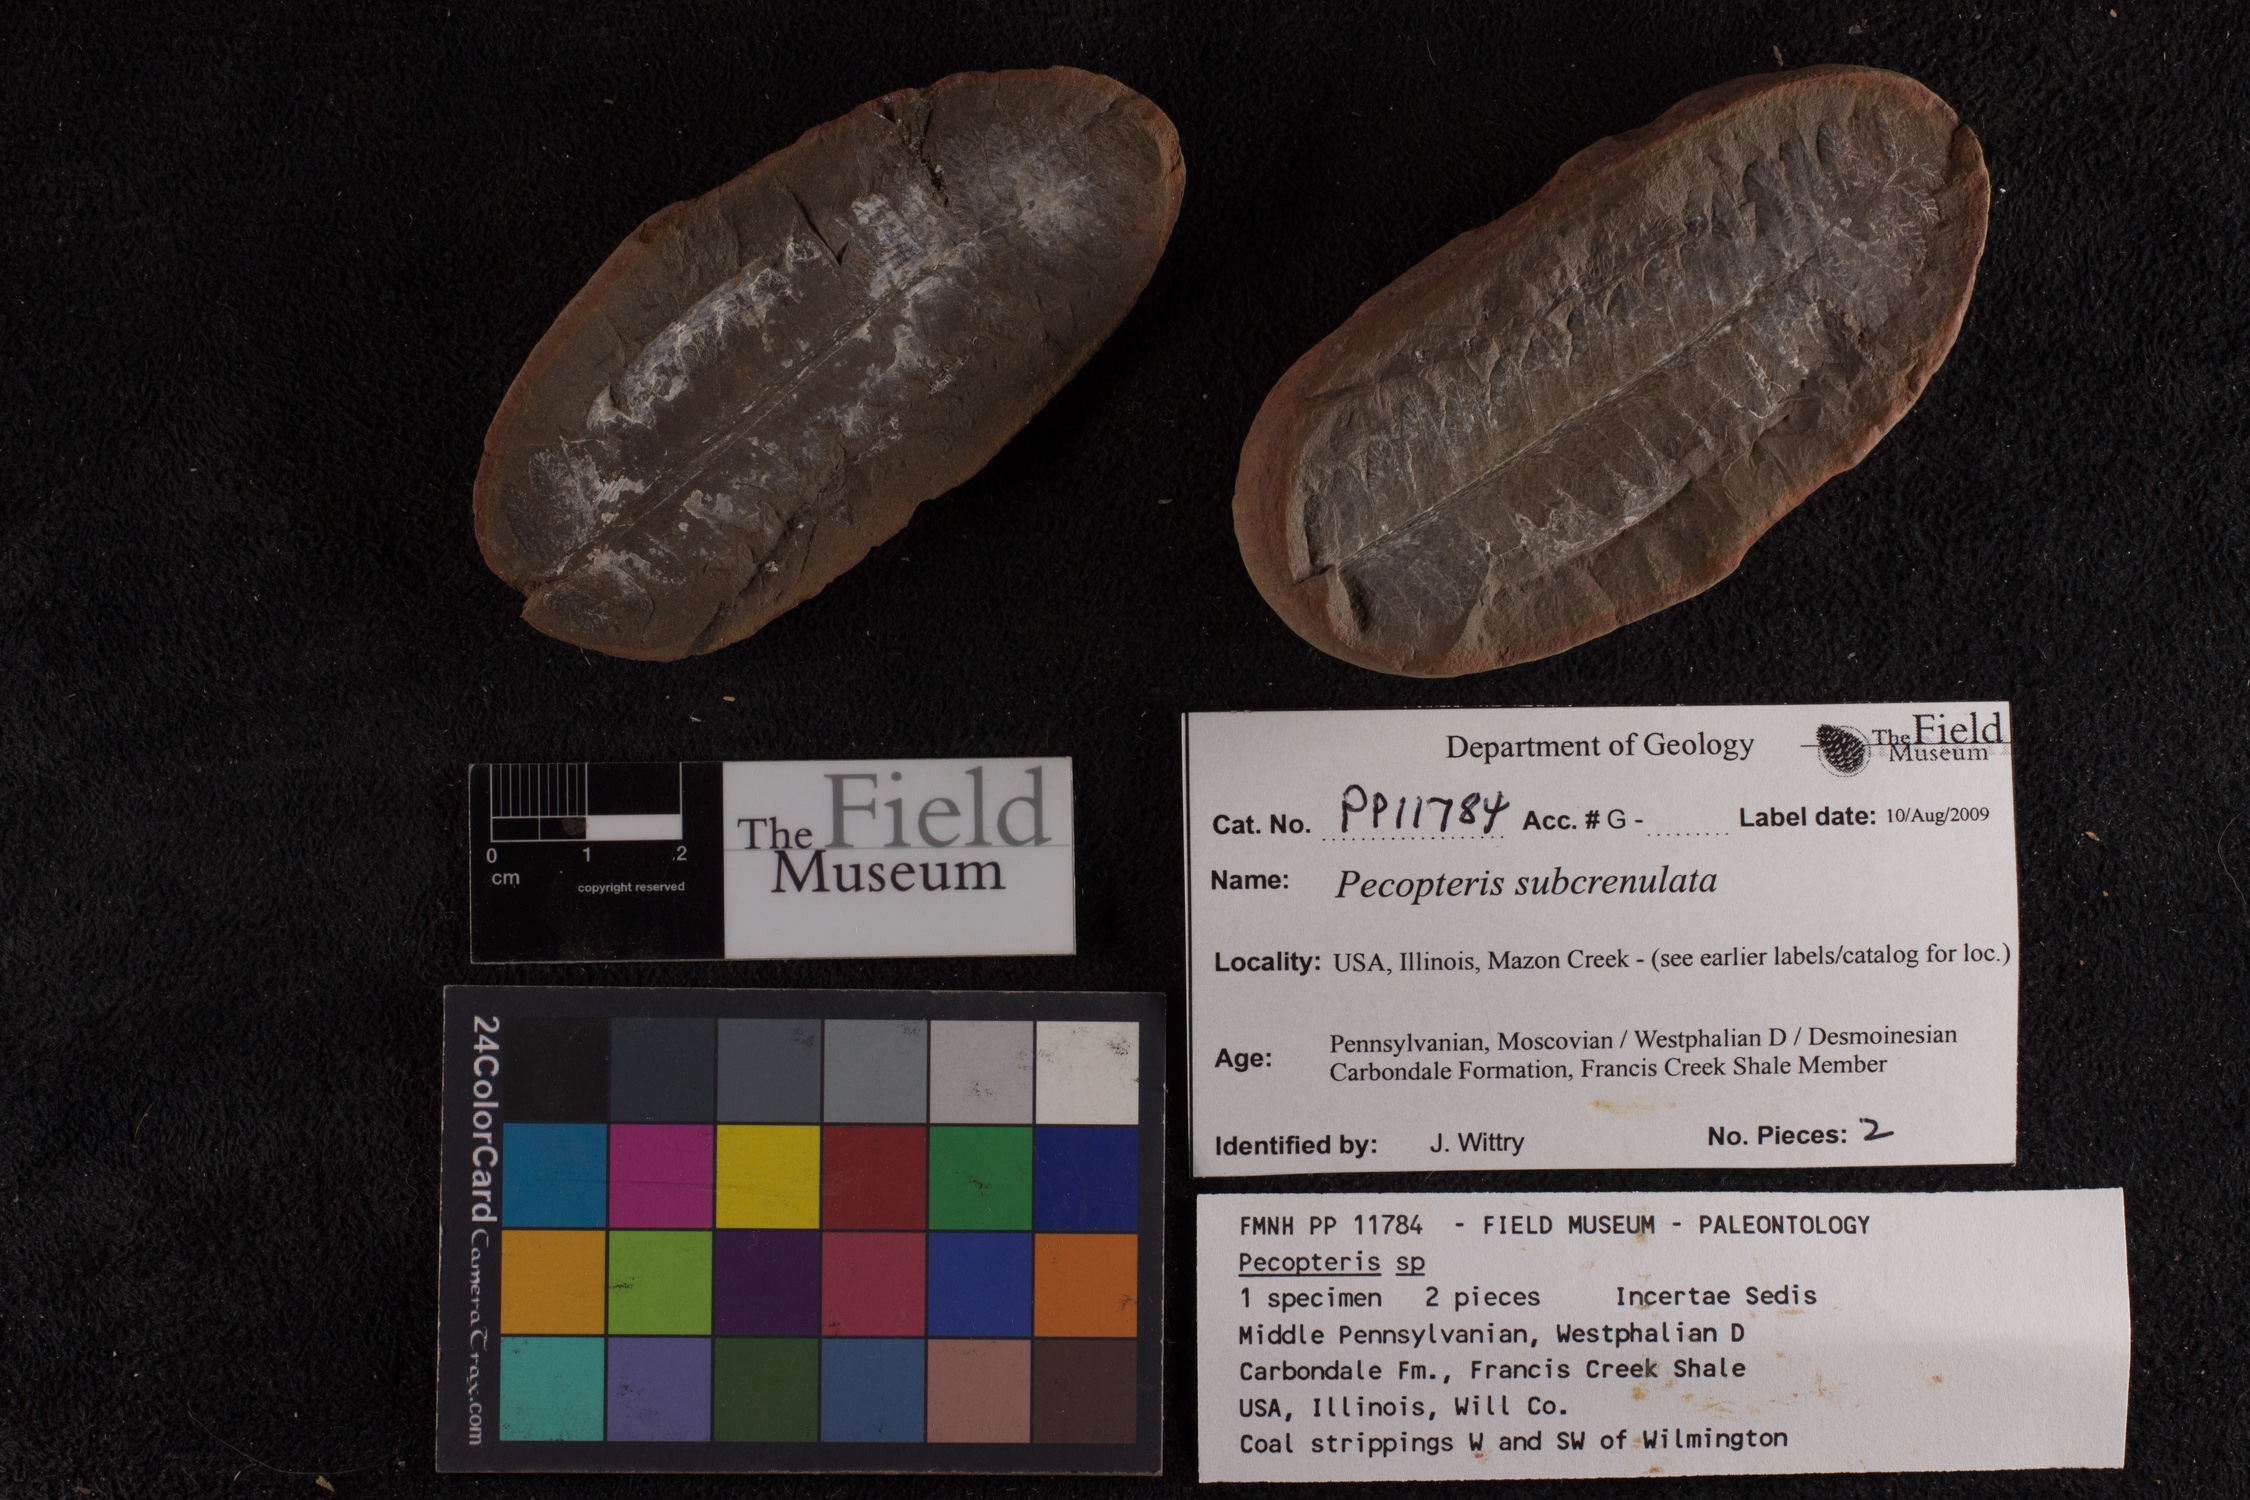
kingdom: Plantae
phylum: Tracheophyta
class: Polypodiopsida
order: Marattiales
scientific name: Marattiales
